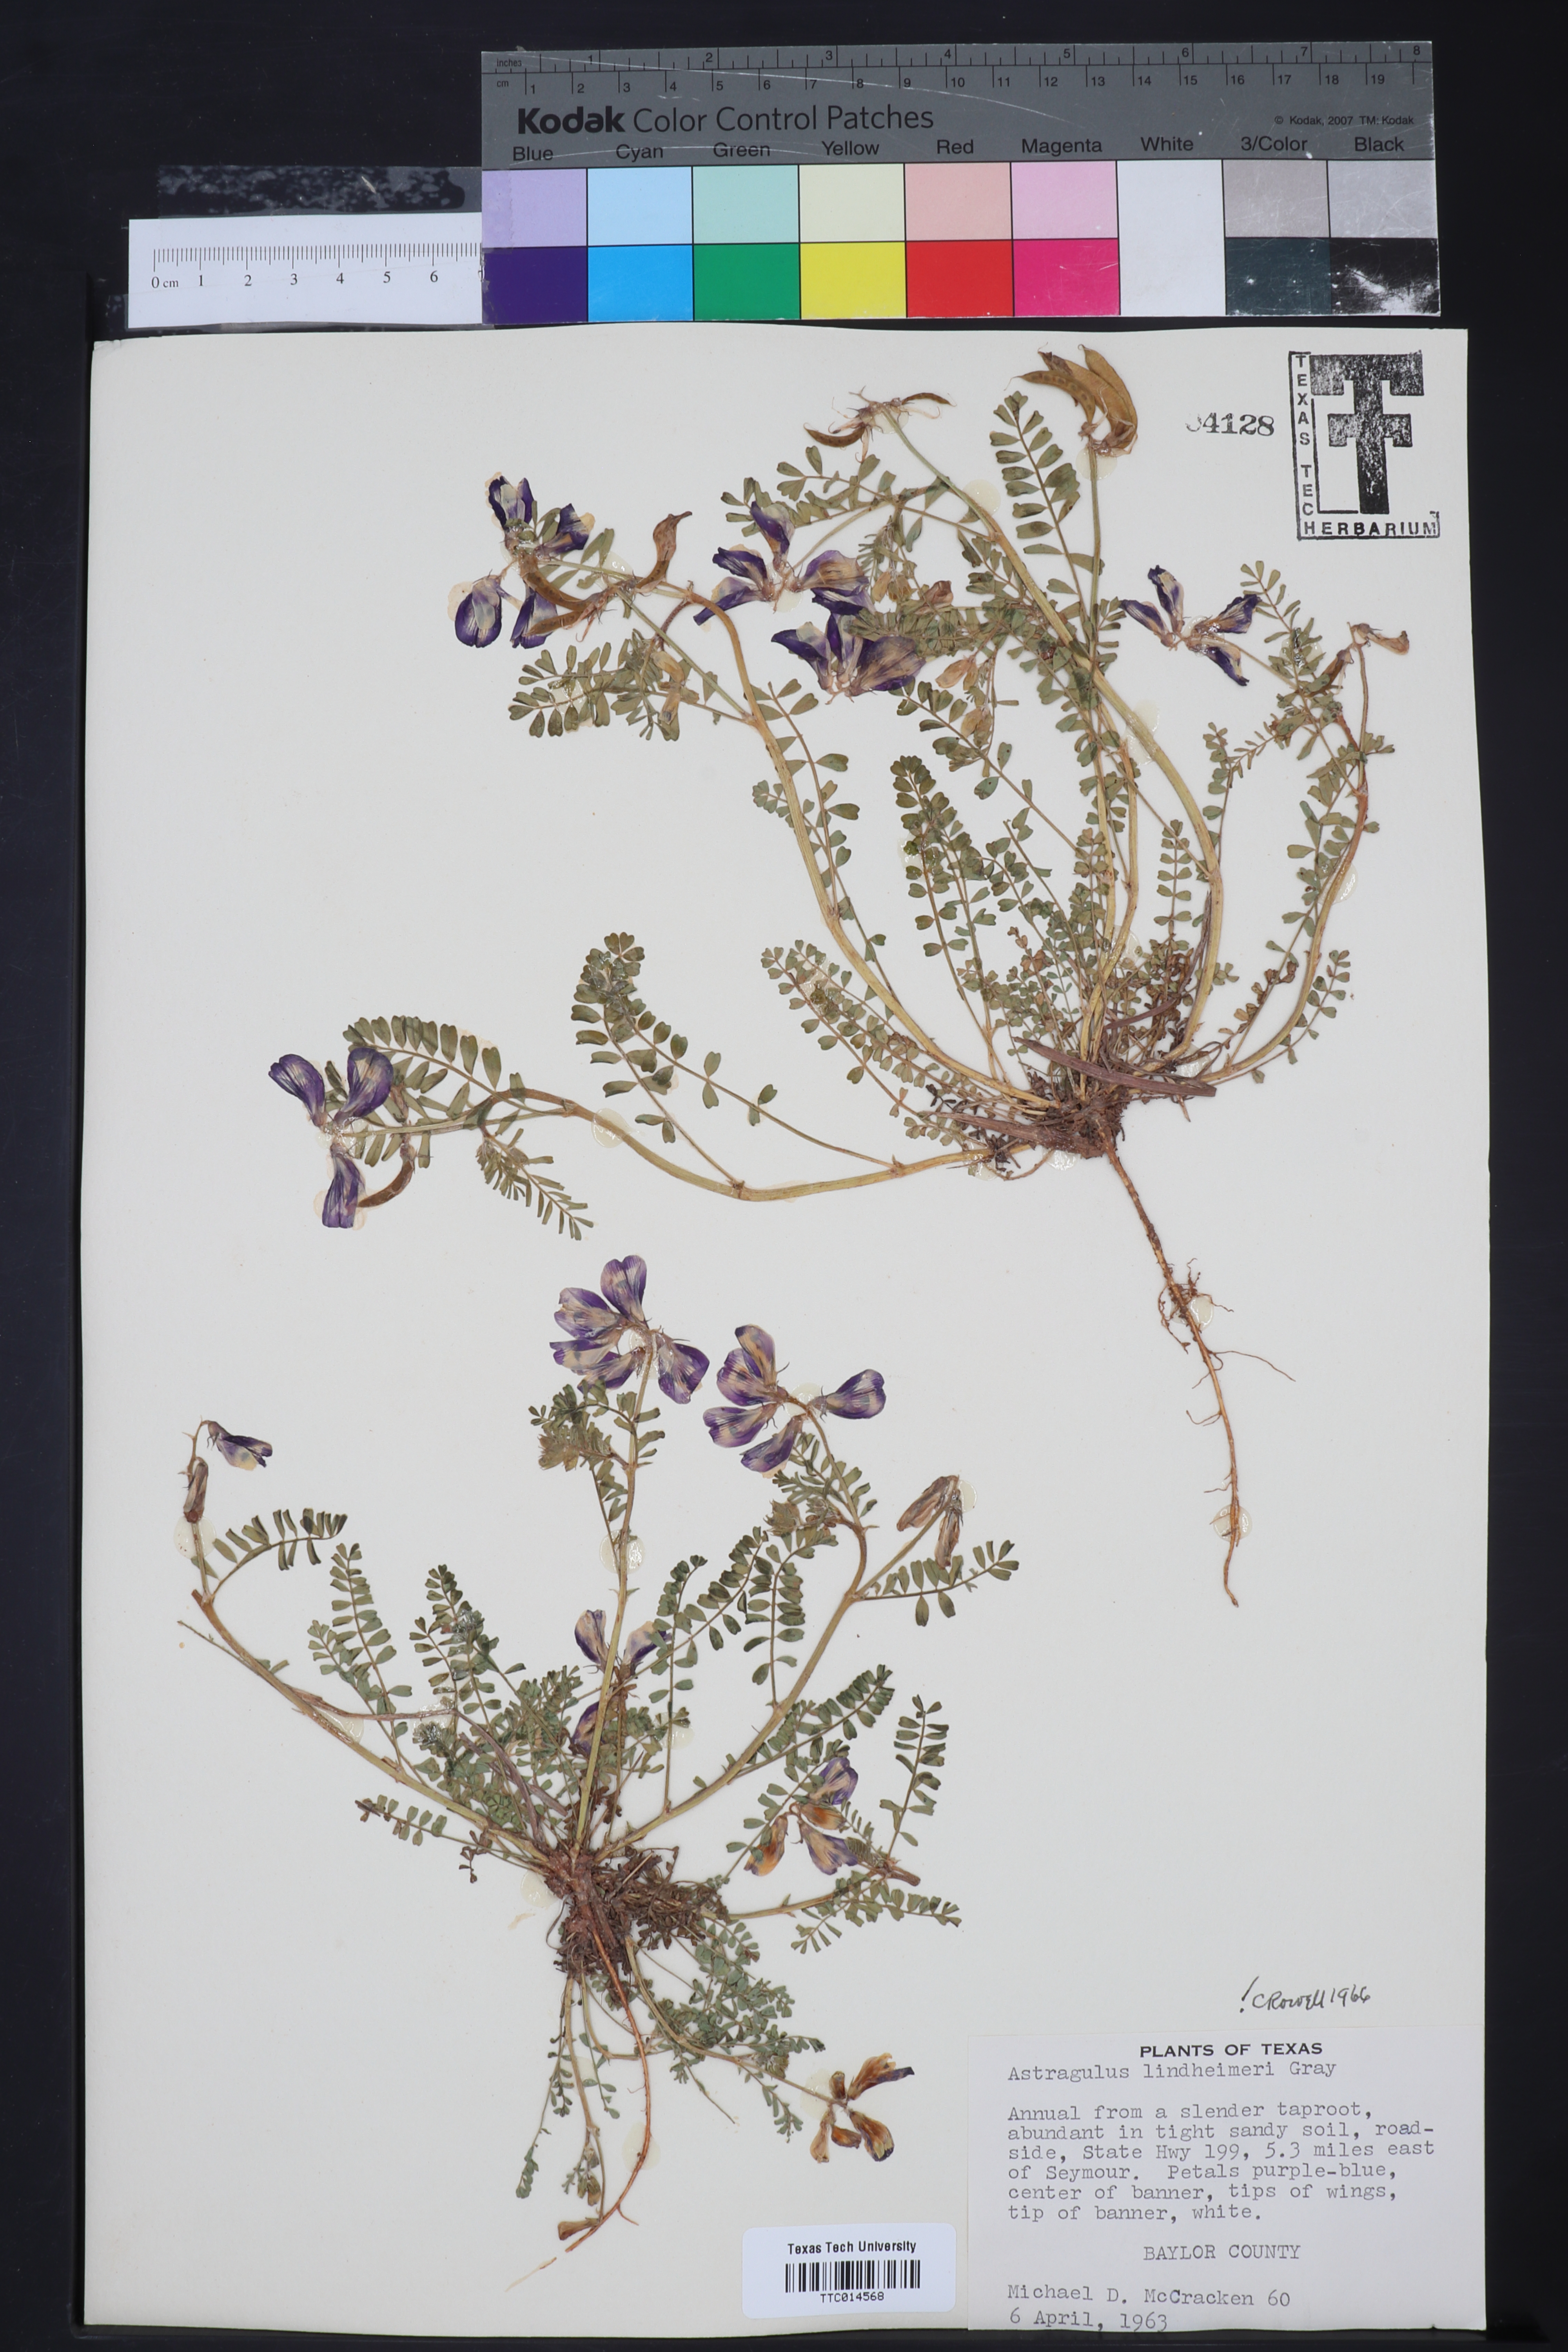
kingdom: Plantae
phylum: Tracheophyta
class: Magnoliopsida
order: Fabales
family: Fabaceae
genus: Astragalus
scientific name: Astragalus lindheimeri
